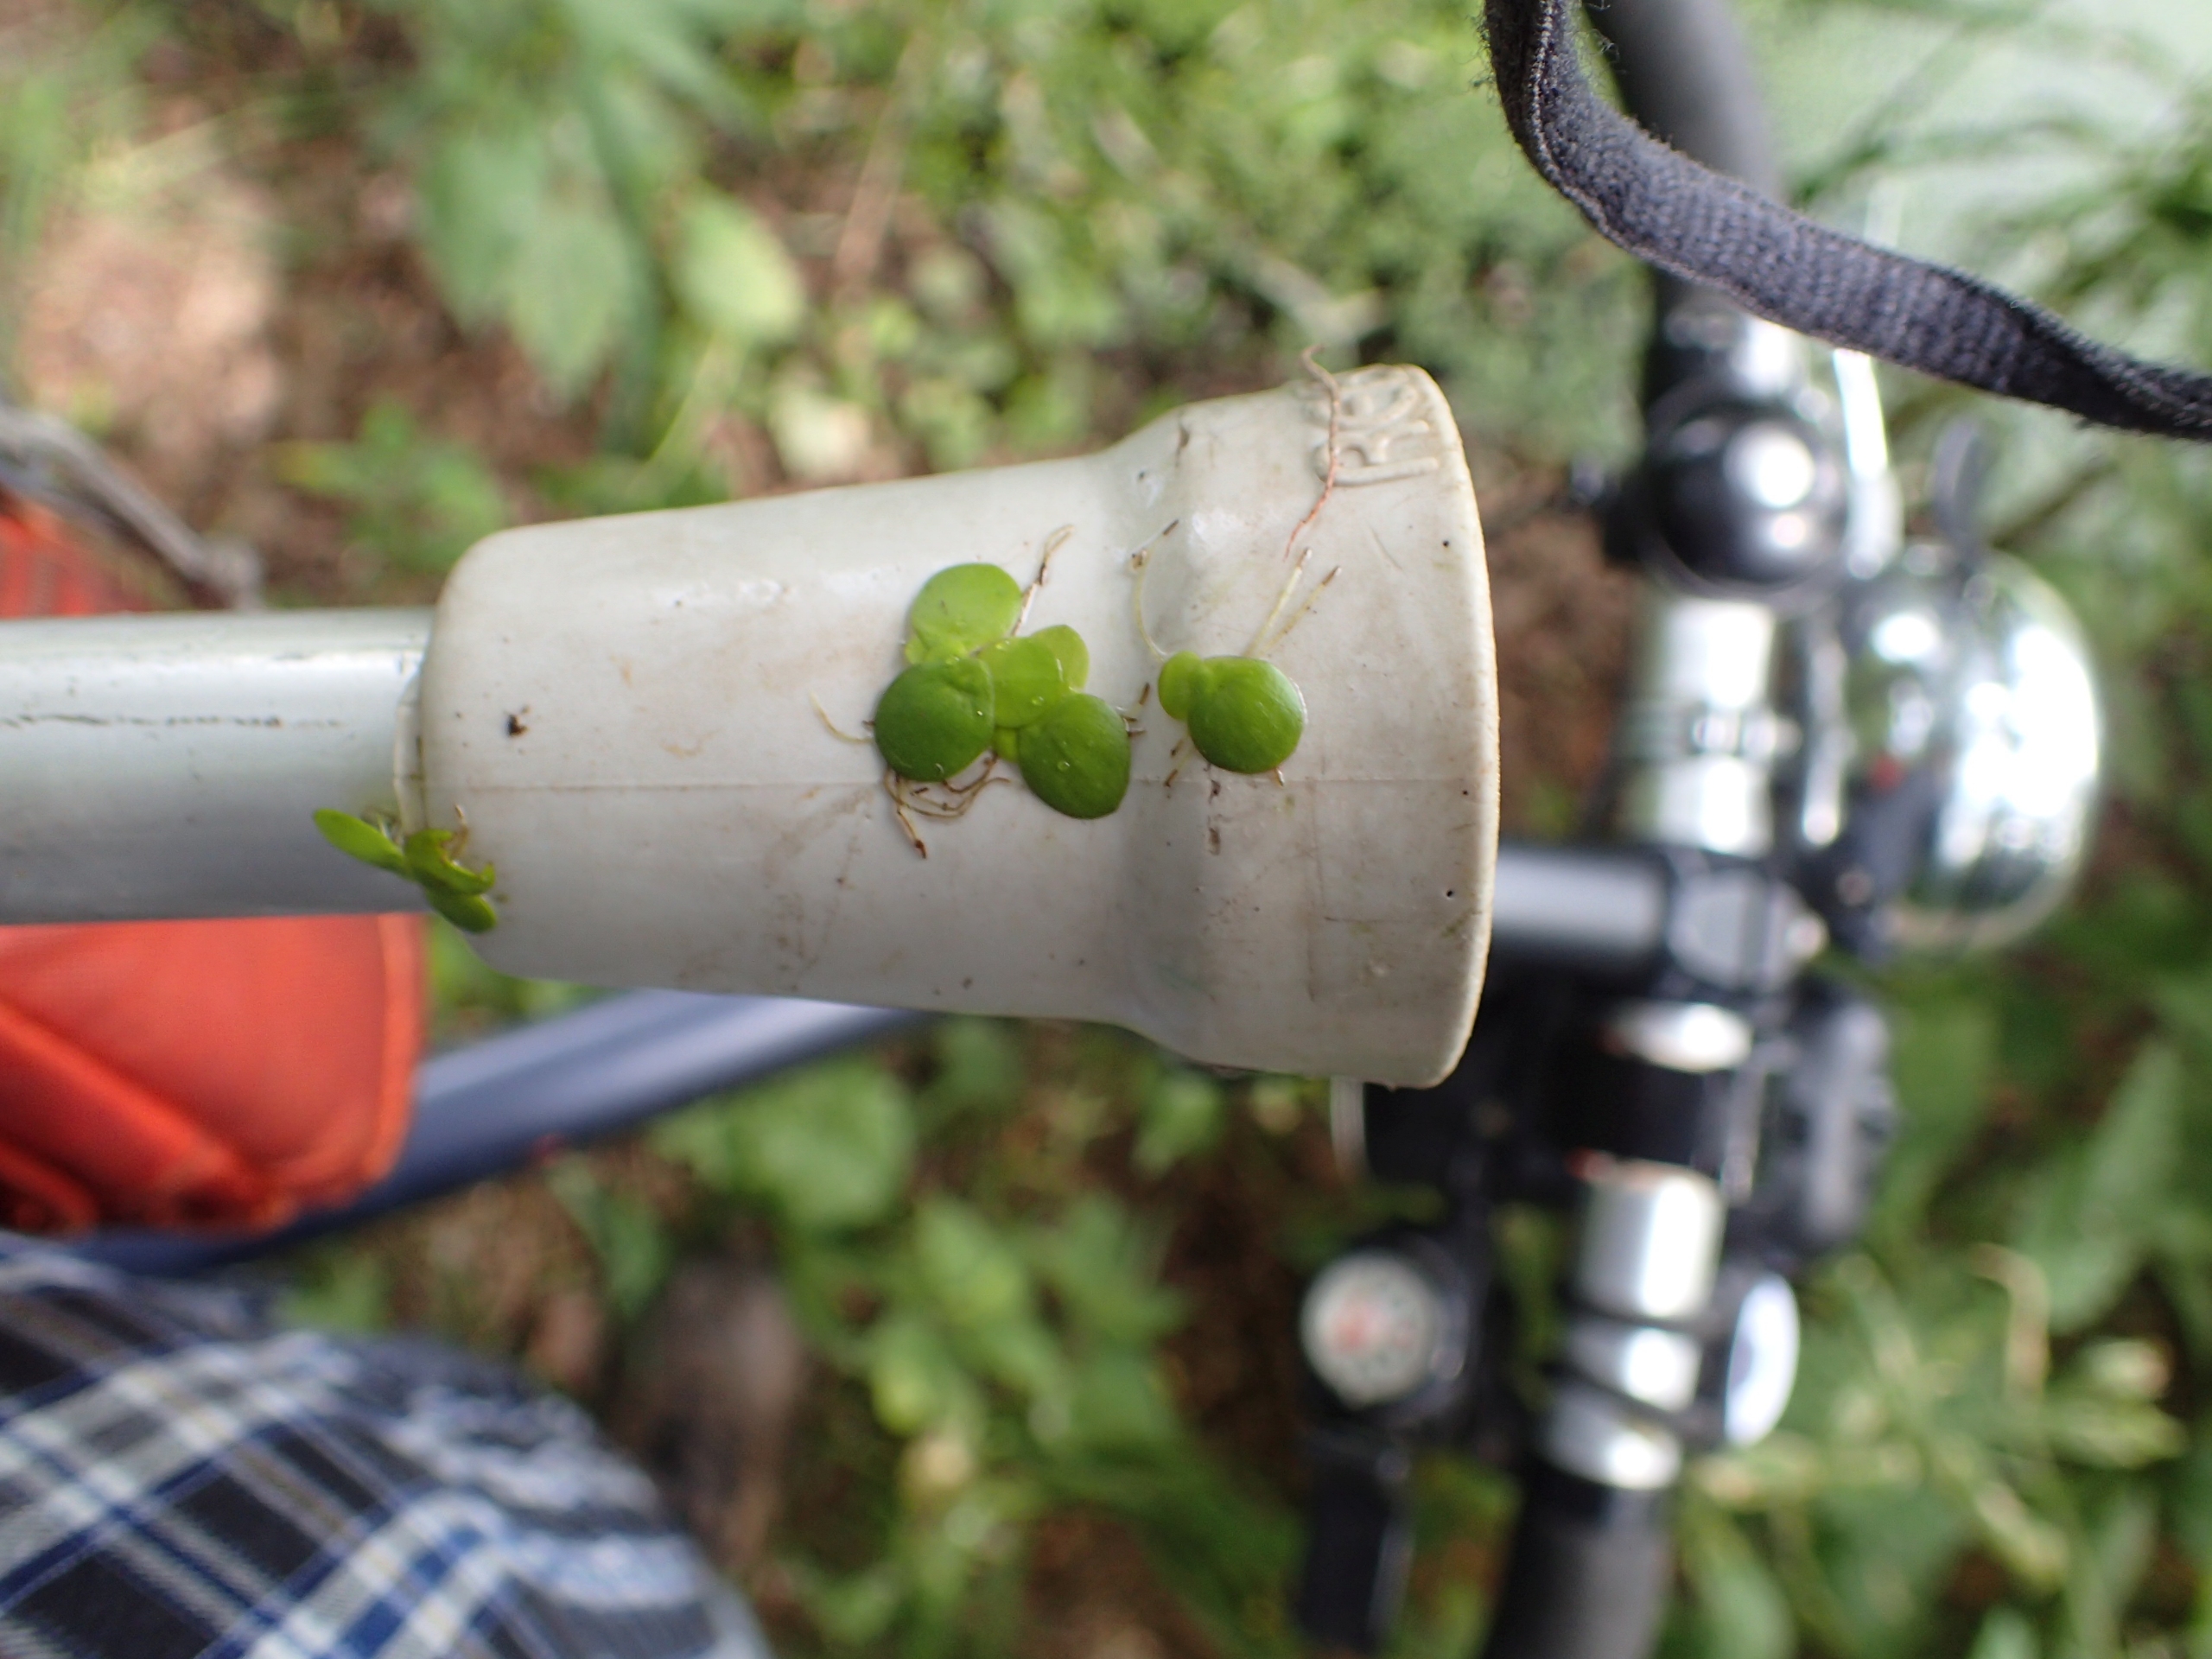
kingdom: Plantae
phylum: Tracheophyta
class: Liliopsida
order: Alismatales
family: Araceae
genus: Spirodela
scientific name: Spirodela polyrhiza
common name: Stor andemad
